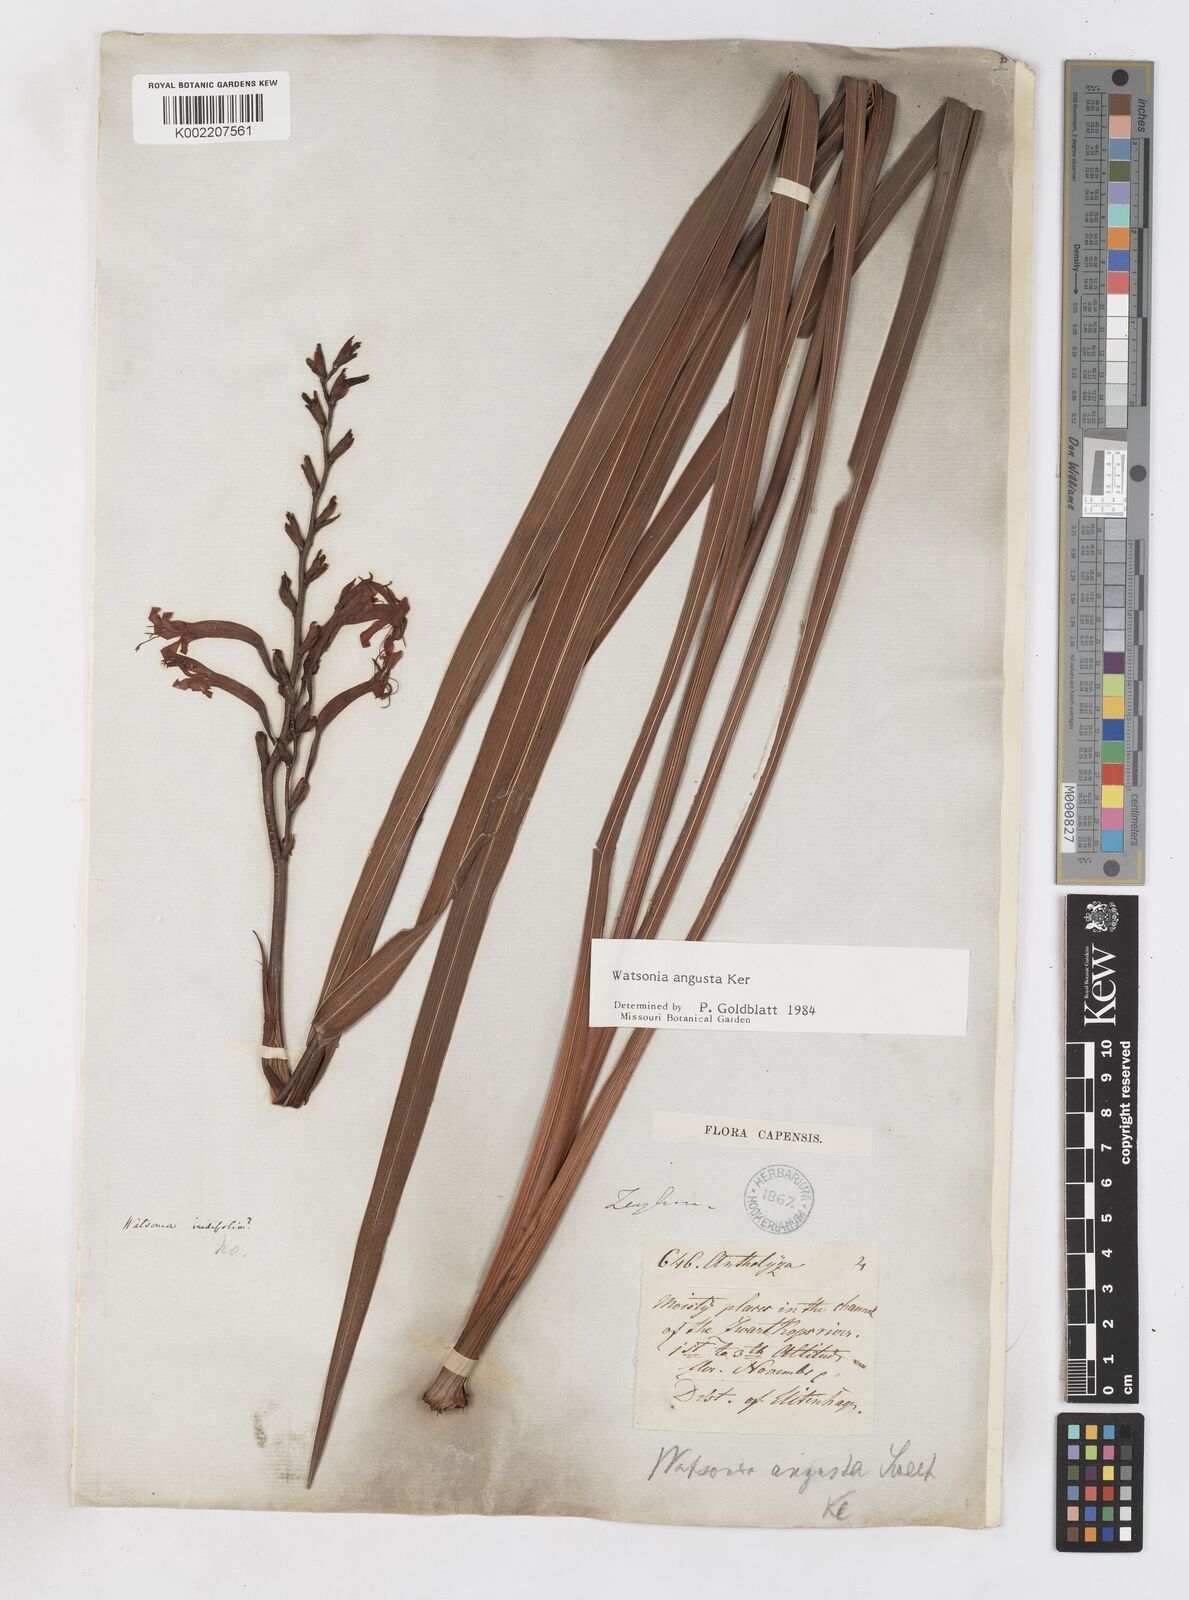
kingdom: Plantae
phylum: Tracheophyta
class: Liliopsida
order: Asparagales
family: Iridaceae
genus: Watsonia
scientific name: Watsonia angusta
